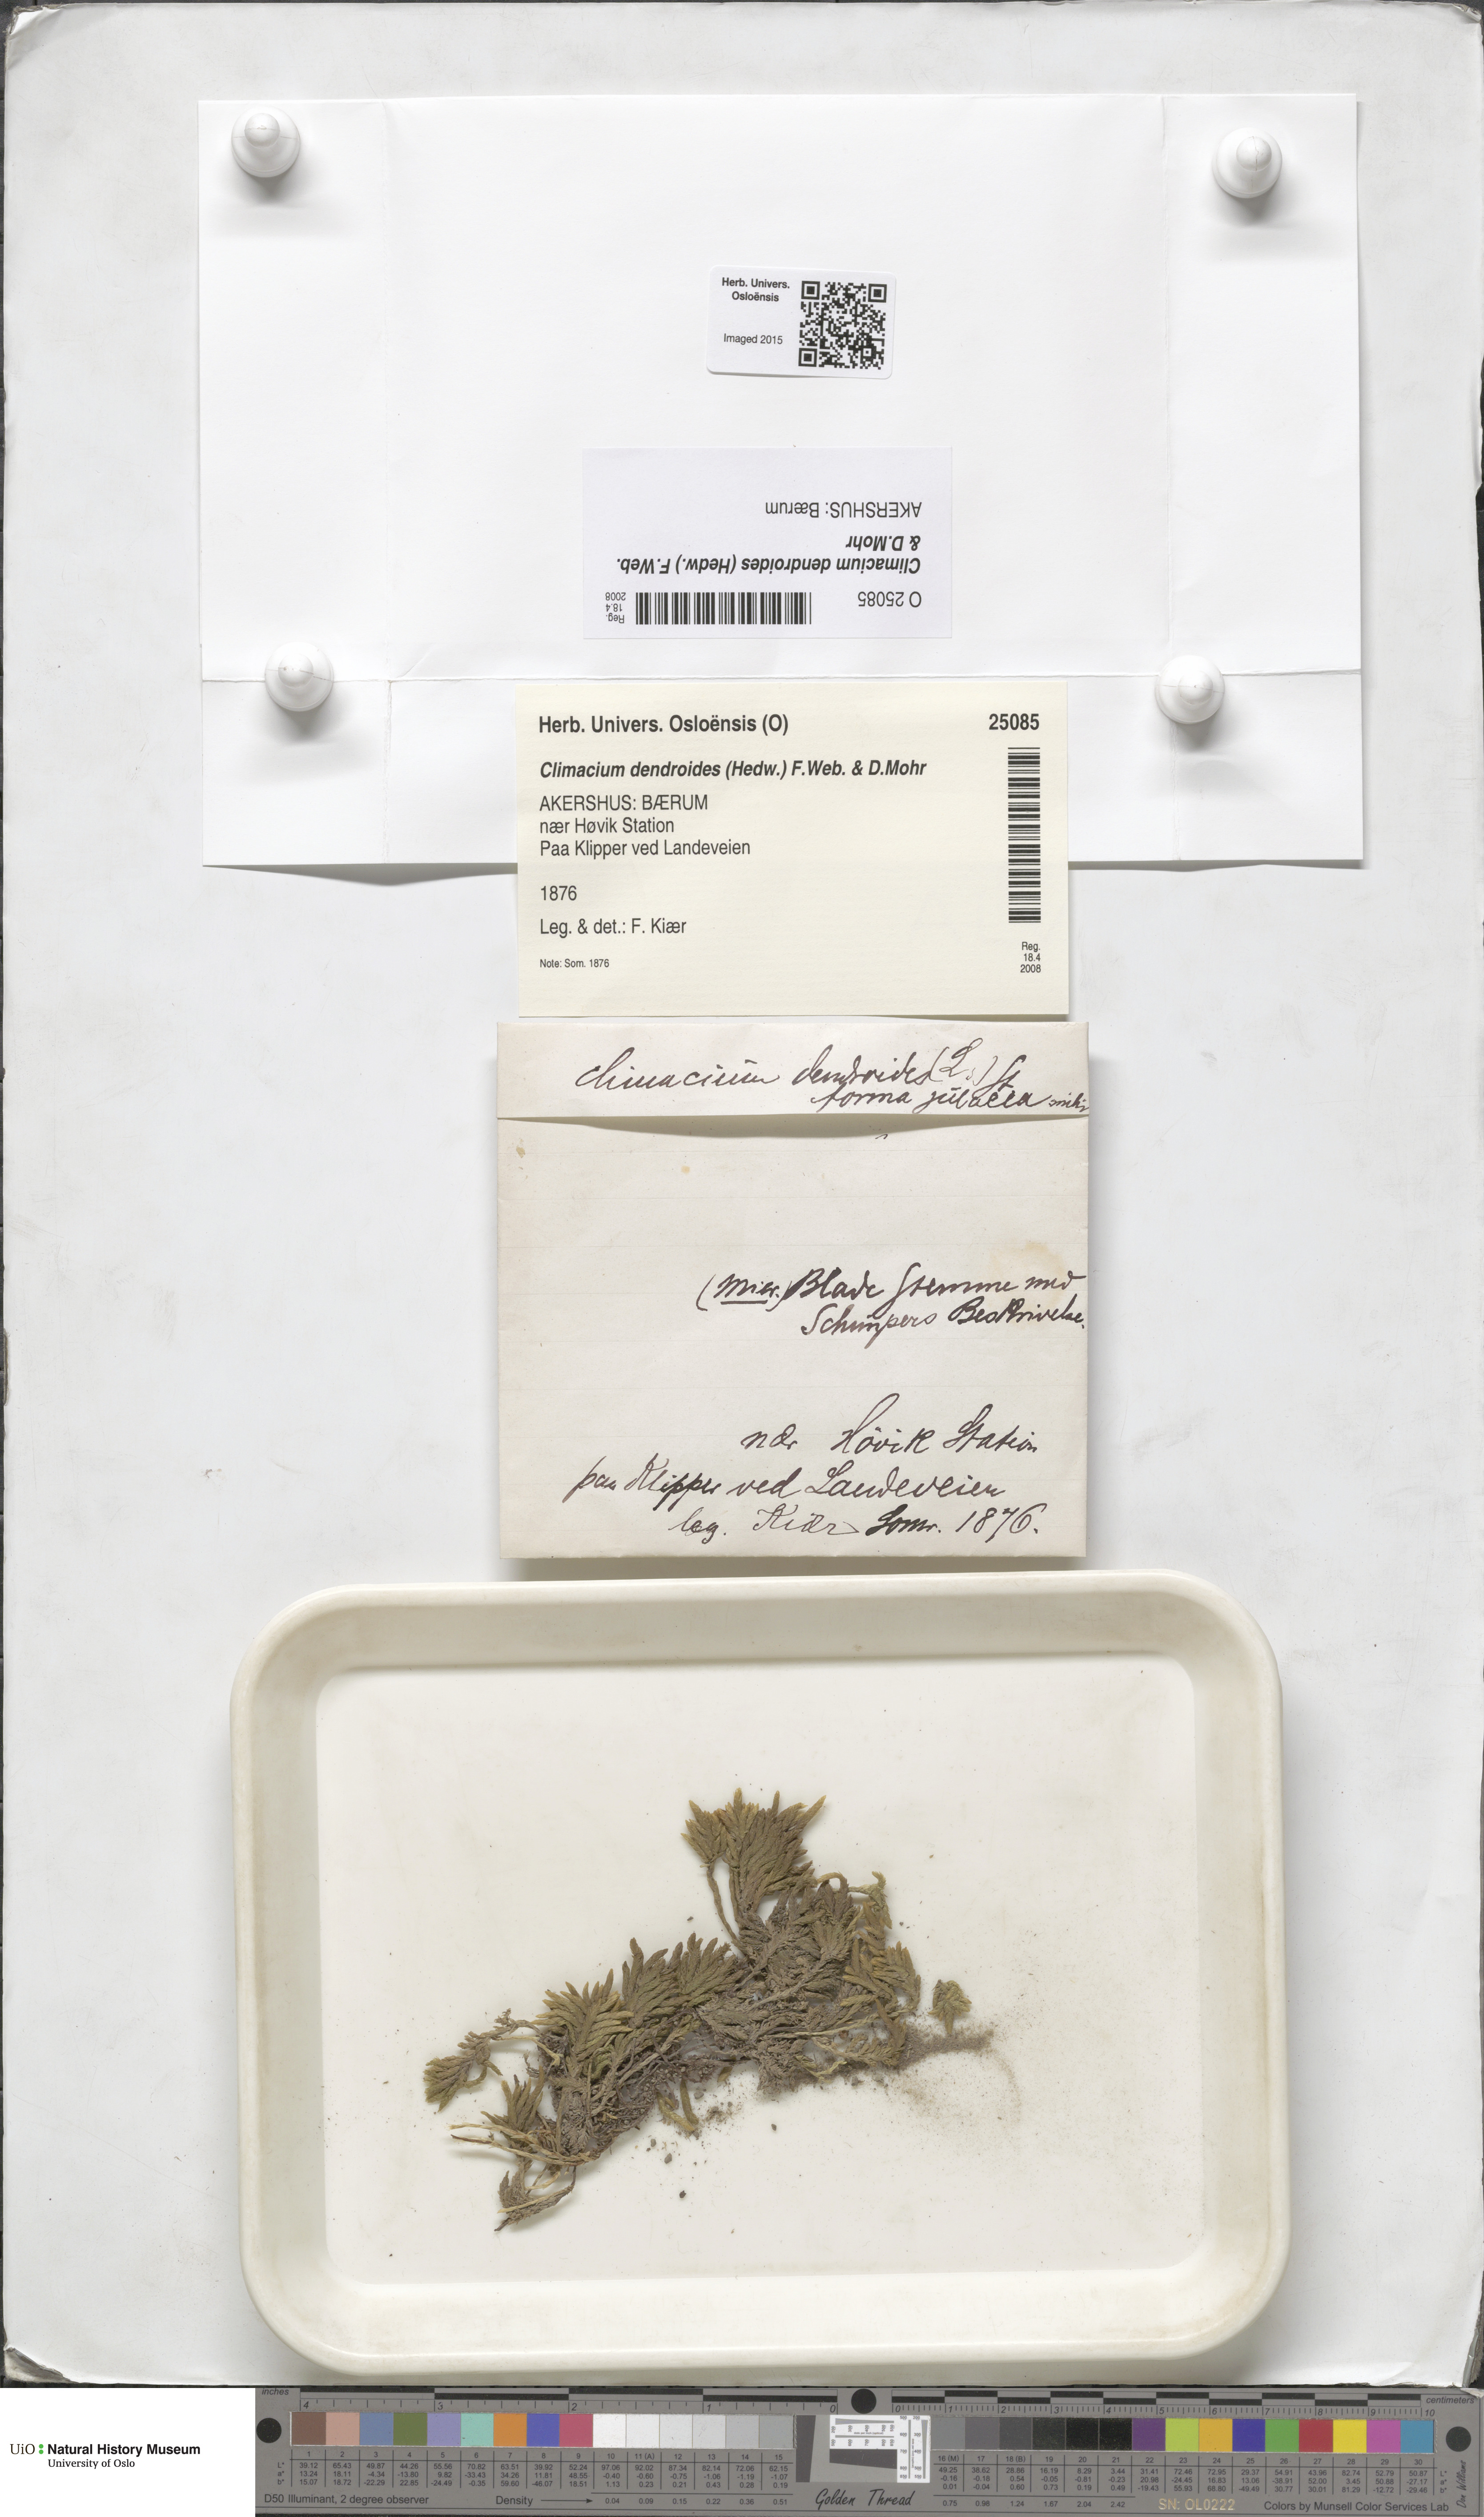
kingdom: Plantae
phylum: Bryophyta
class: Bryopsida
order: Hypnales
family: Climaciaceae
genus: Climacium
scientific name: Climacium dendroides
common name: Northern tree moss
